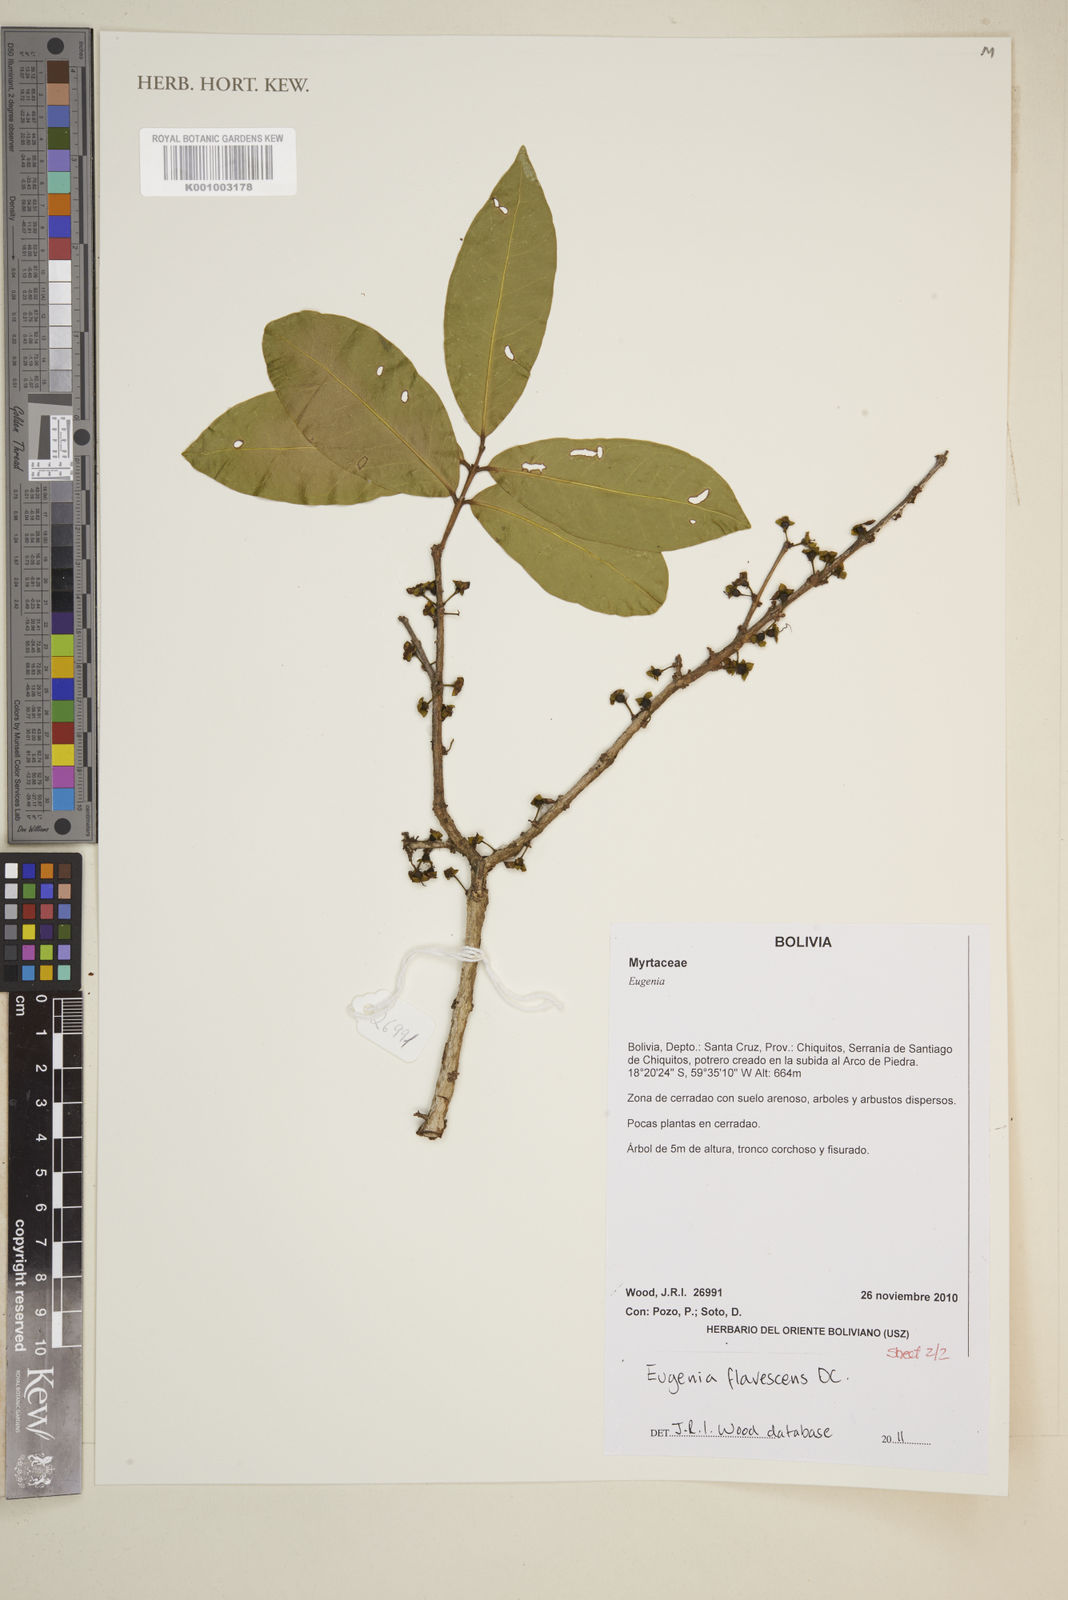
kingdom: Plantae
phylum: Tracheophyta
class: Magnoliopsida
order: Myrtales
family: Myrtaceae
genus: Eugenia
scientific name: Eugenia flavescens
